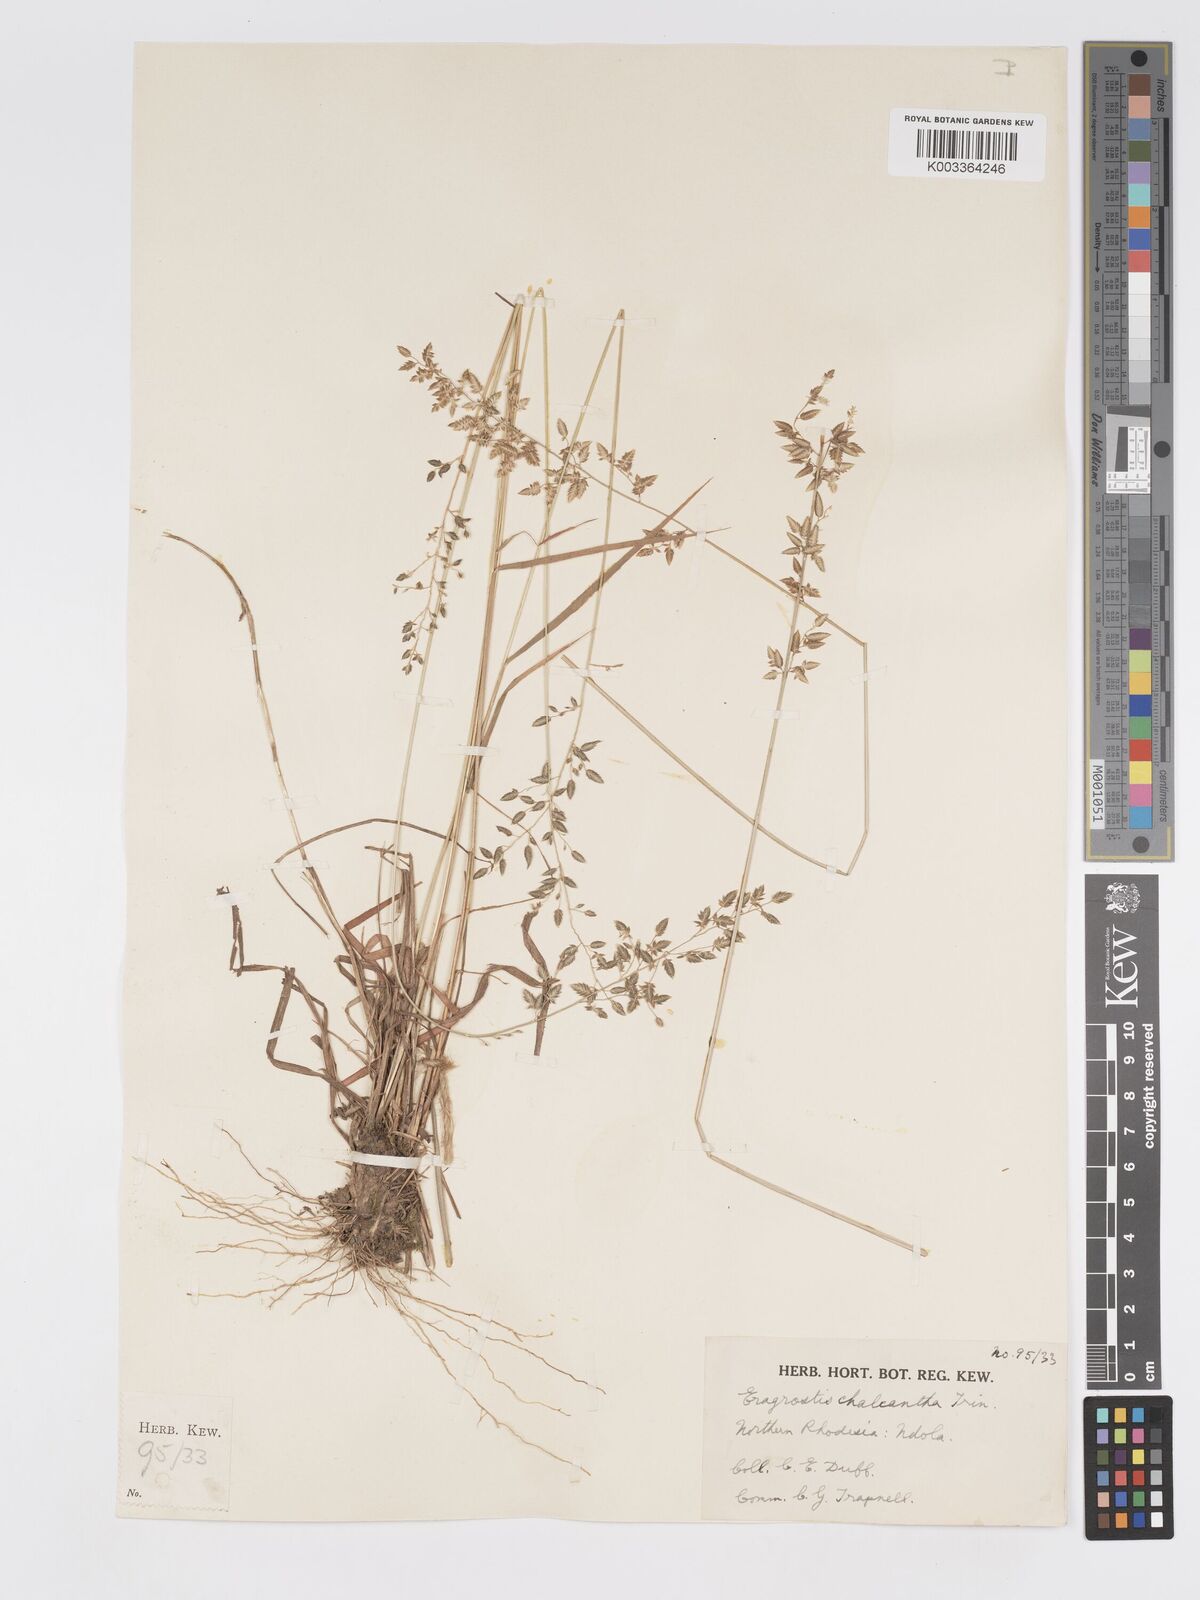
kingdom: Plantae
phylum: Tracheophyta
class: Liliopsida
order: Poales
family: Poaceae
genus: Eragrostis
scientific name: Eragrostis racemosa
